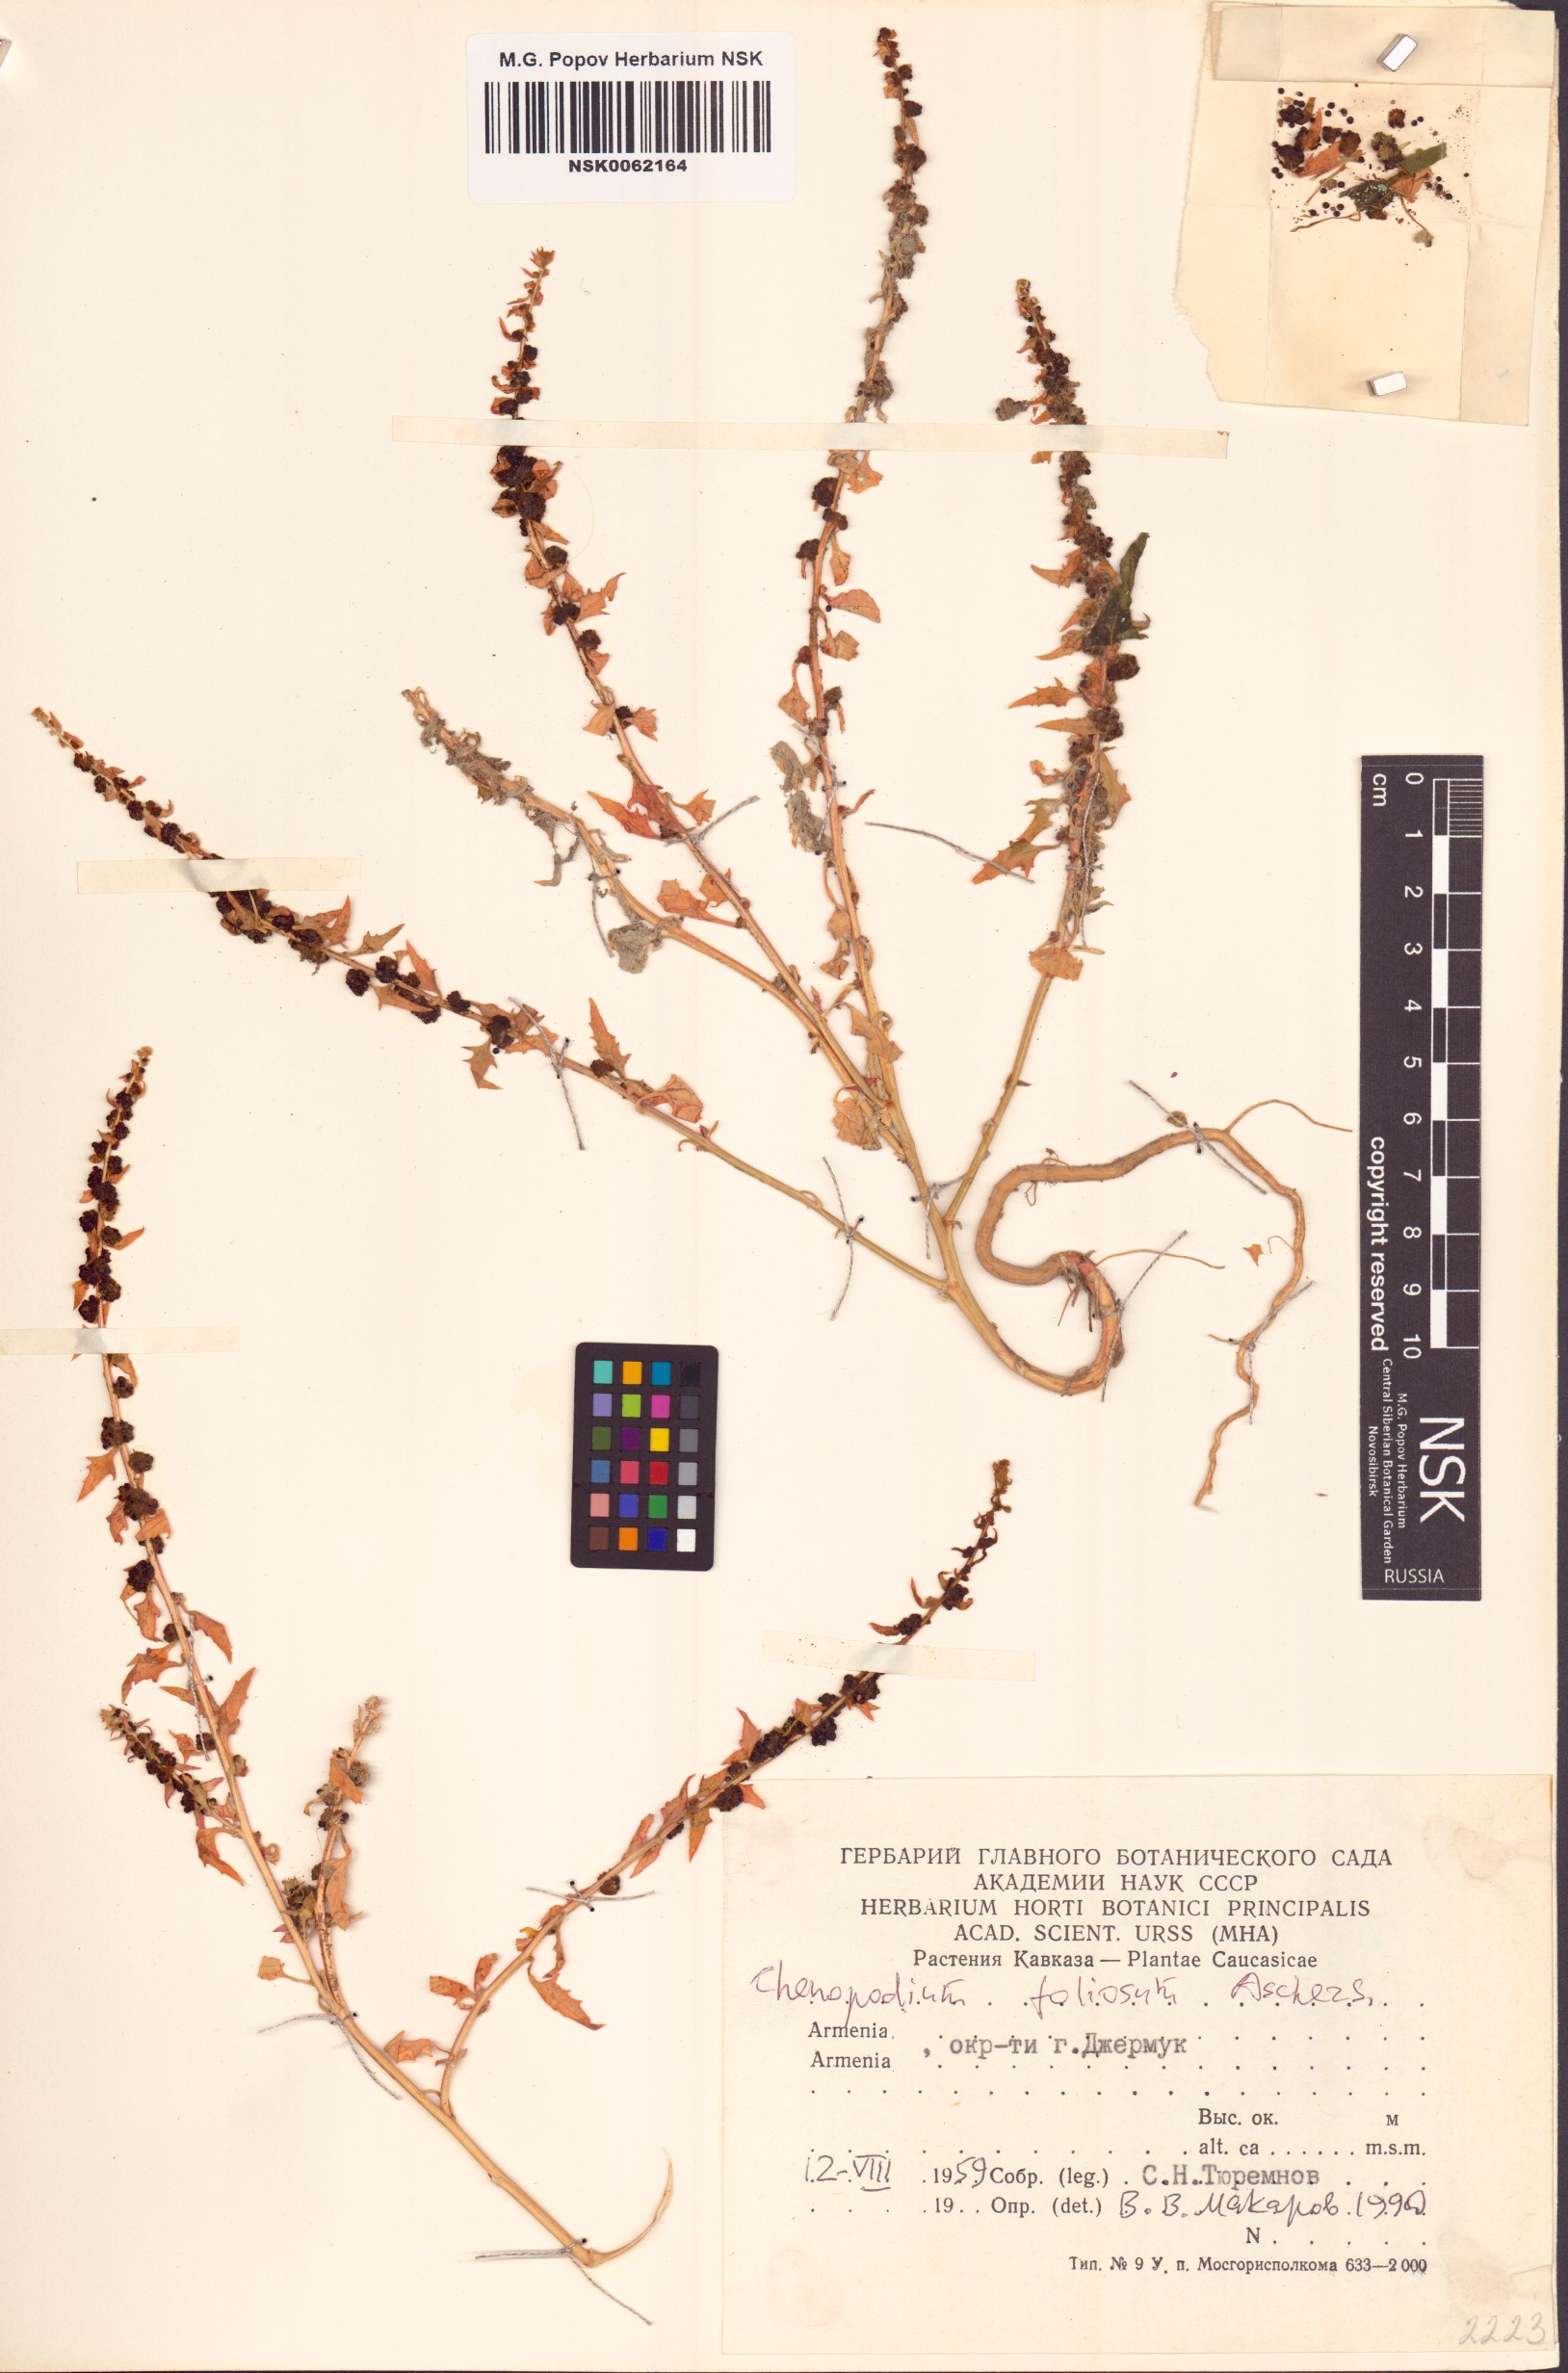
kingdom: Plantae
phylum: Tracheophyta
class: Magnoliopsida
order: Caryophyllales
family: Amaranthaceae
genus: Blitum
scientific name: Blitum virgatum
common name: Strawberry goosefoot
